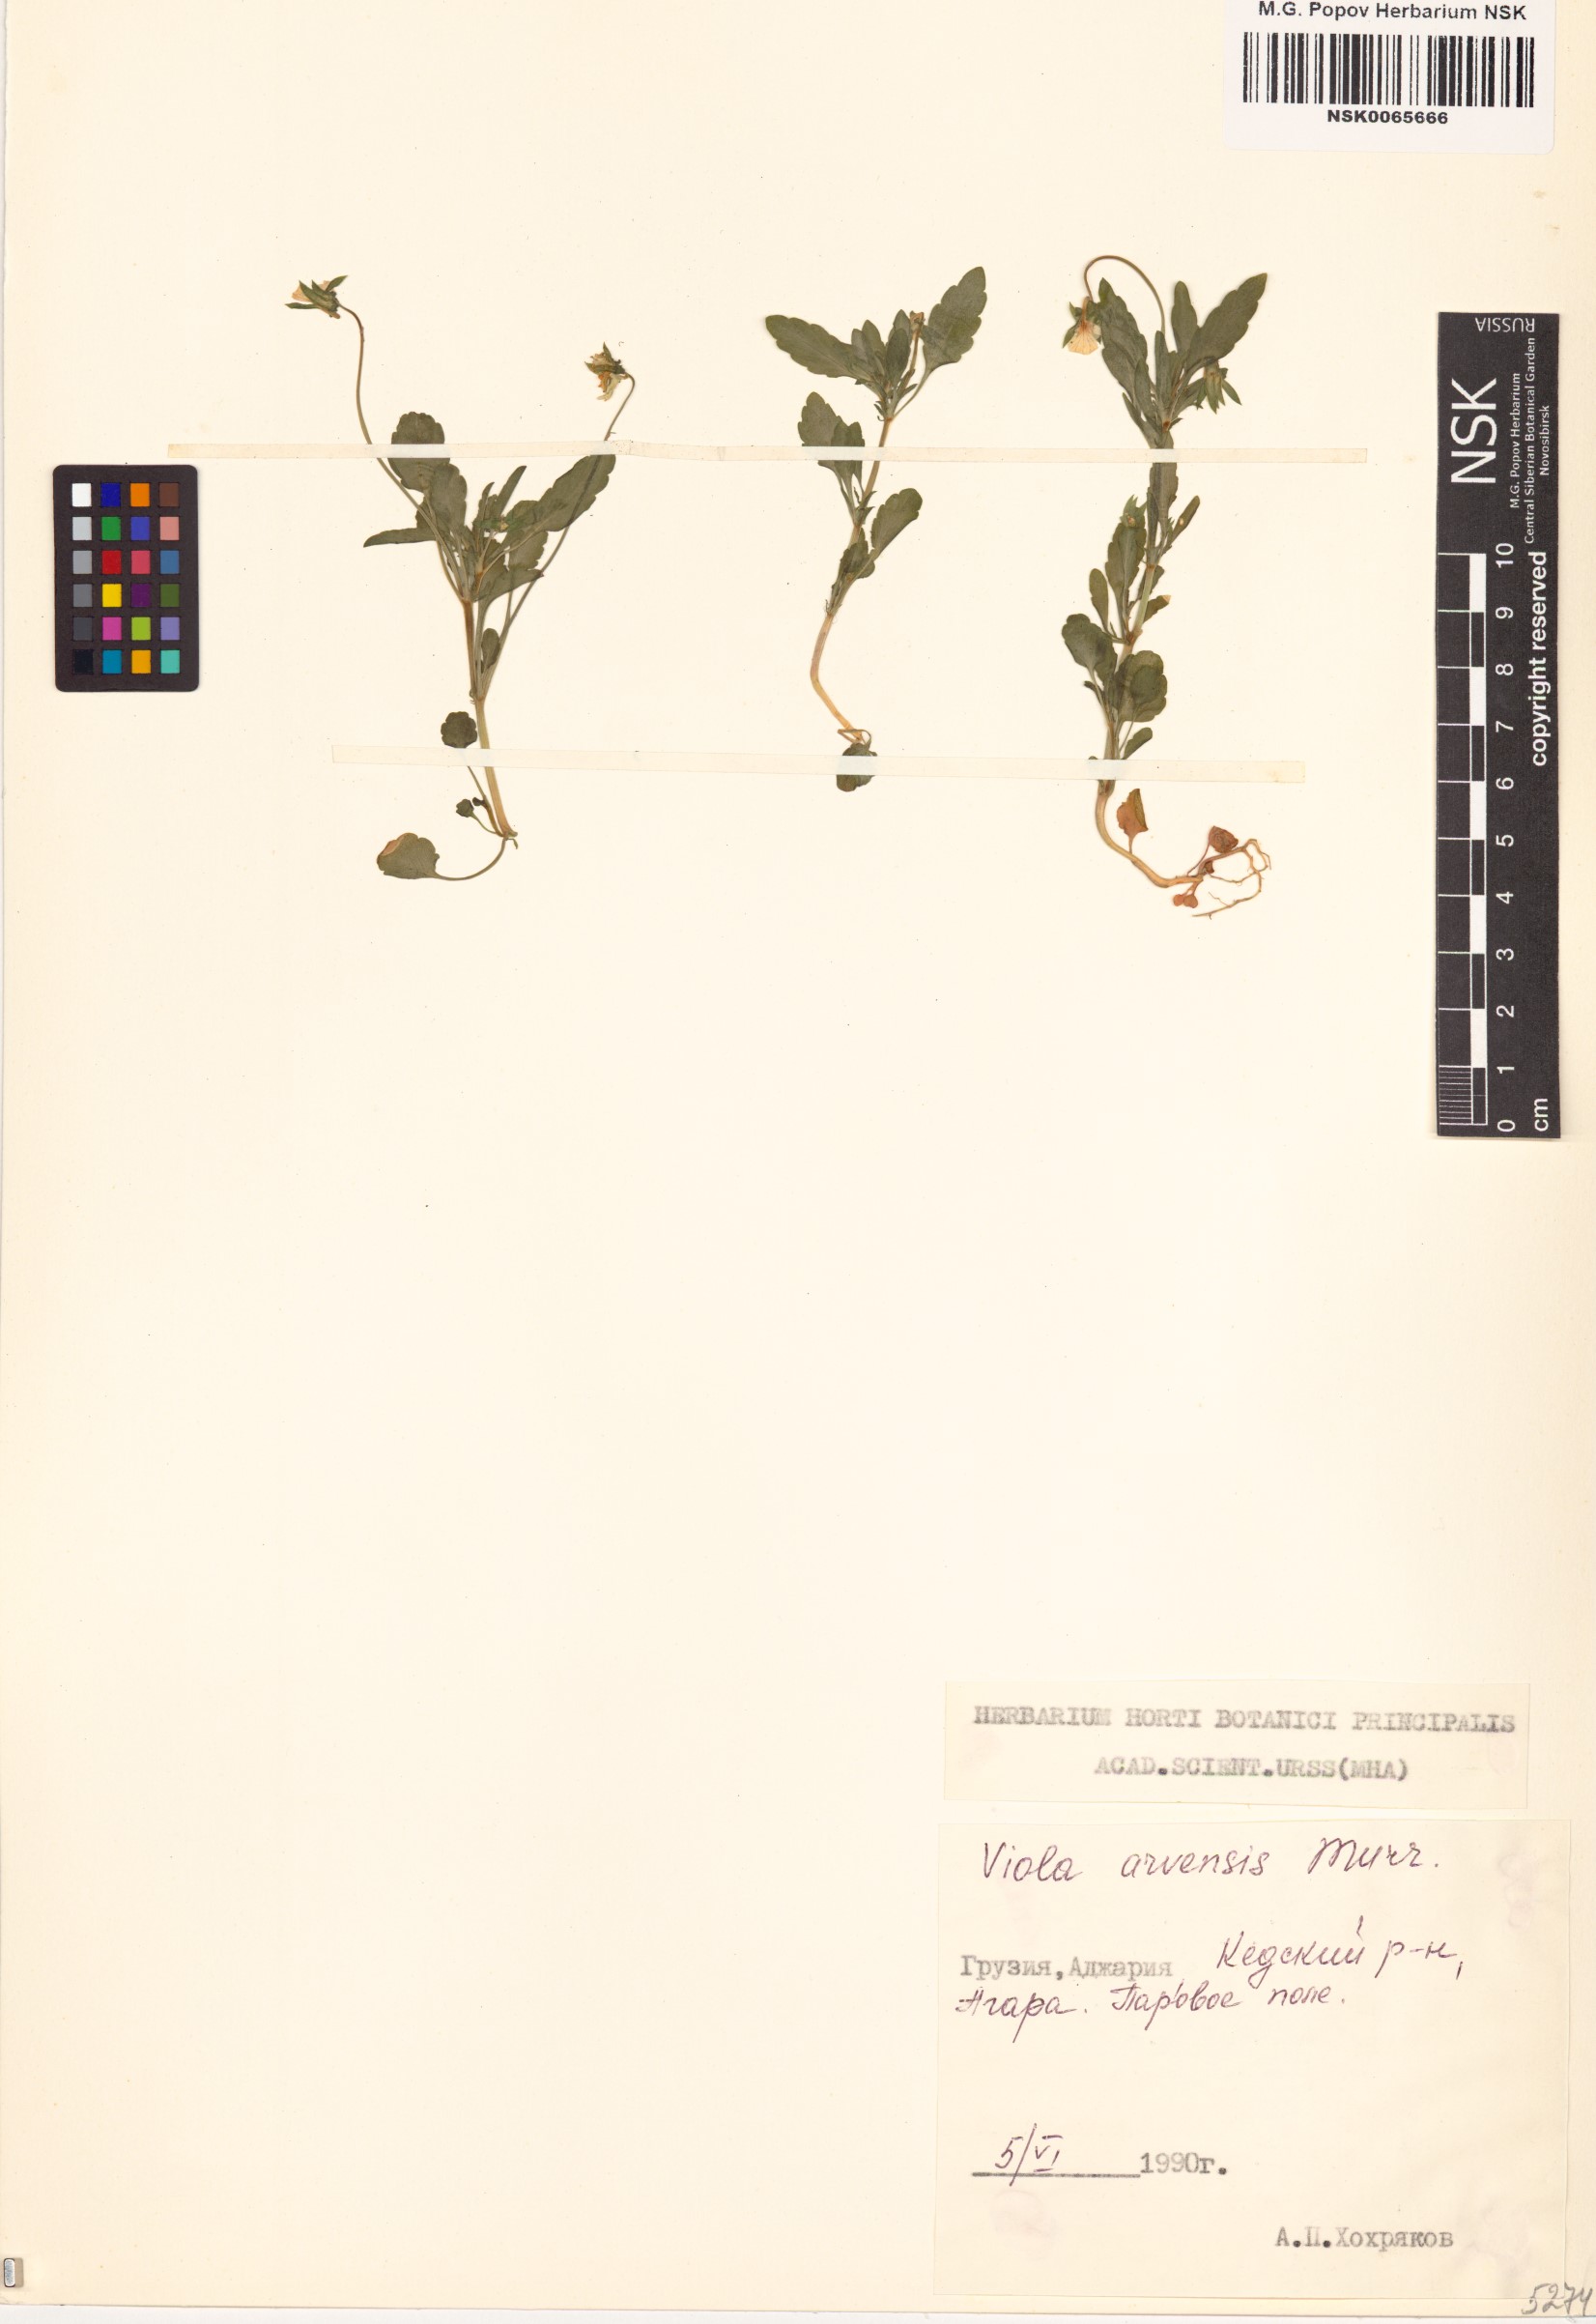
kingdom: Plantae
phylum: Tracheophyta
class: Magnoliopsida
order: Malpighiales
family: Violaceae
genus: Viola
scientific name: Viola arvensis
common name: Field pansy
